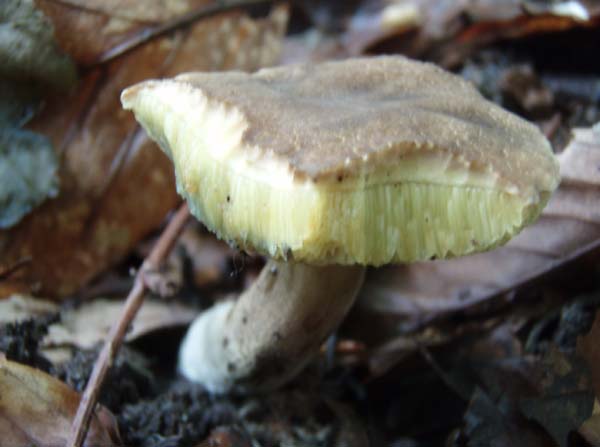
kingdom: Fungi
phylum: Basidiomycota
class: Agaricomycetes
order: Boletales
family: Boletaceae
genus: Xerocomellus
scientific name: Xerocomellus chrysenteron
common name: rødsprukken rørhat
